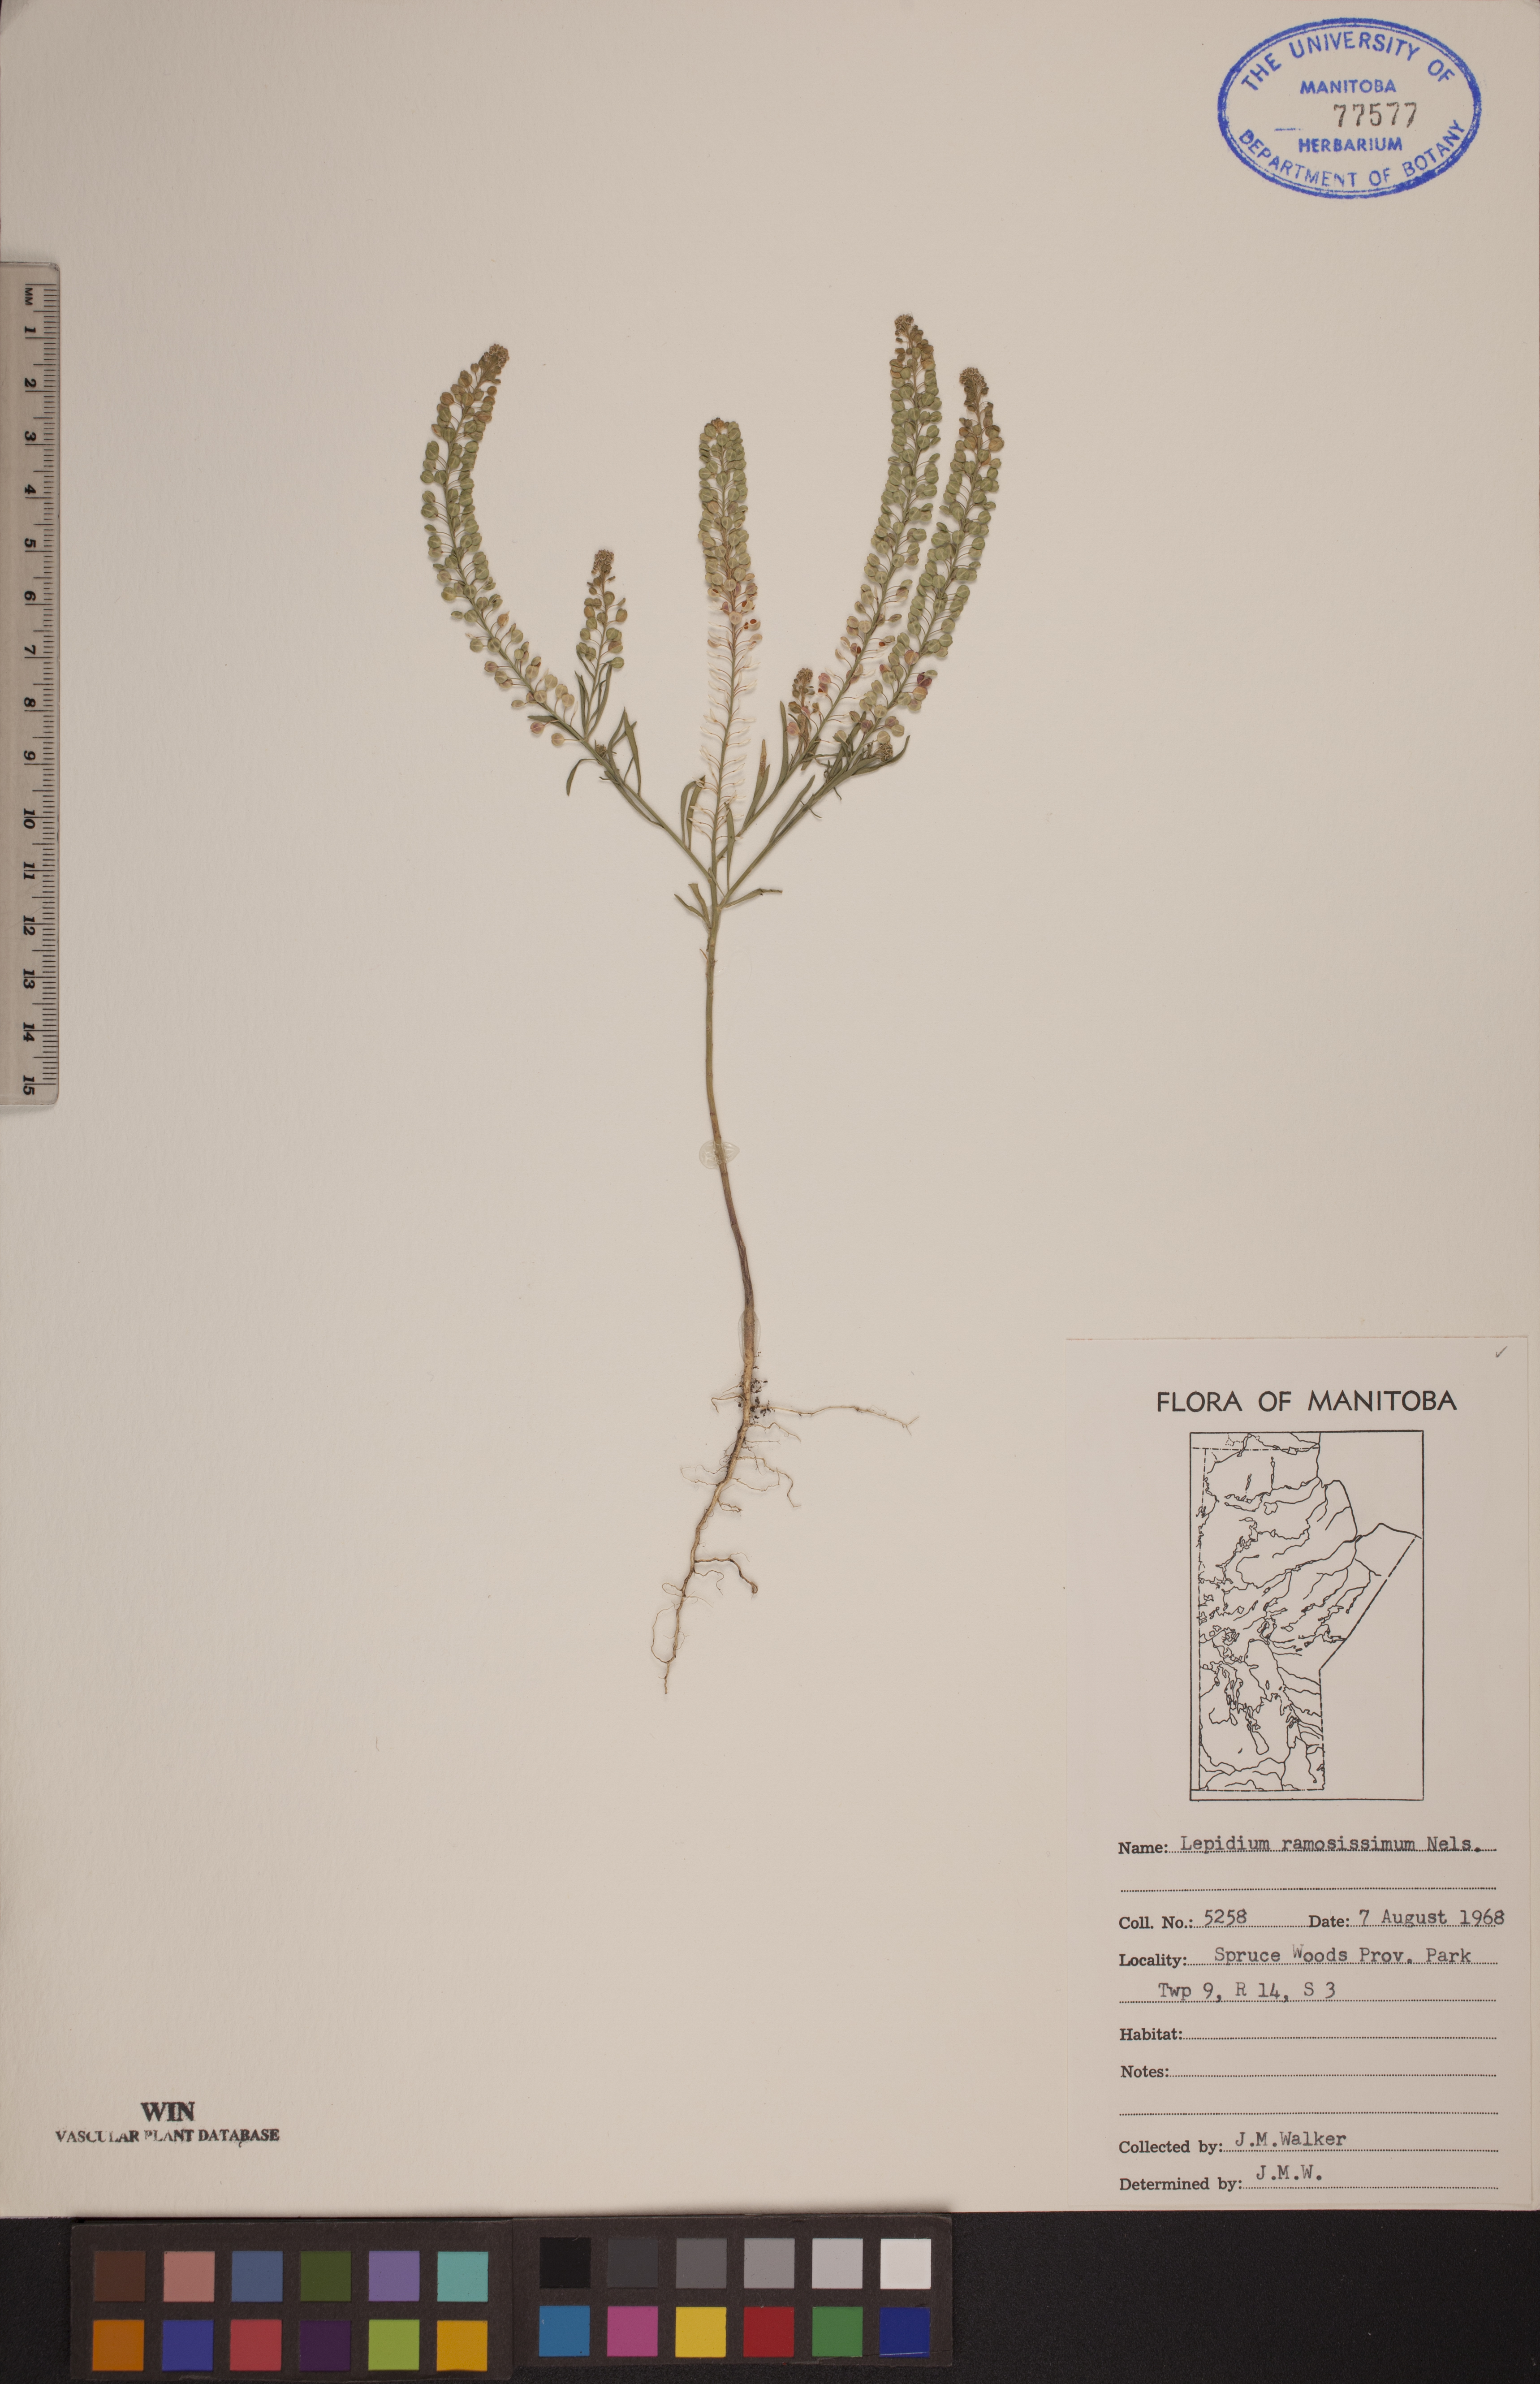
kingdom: Plantae
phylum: Tracheophyta
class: Magnoliopsida
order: Brassicales
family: Brassicaceae
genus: Lepidium
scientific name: Lepidium ramosissimum
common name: Bushy peppergrass
